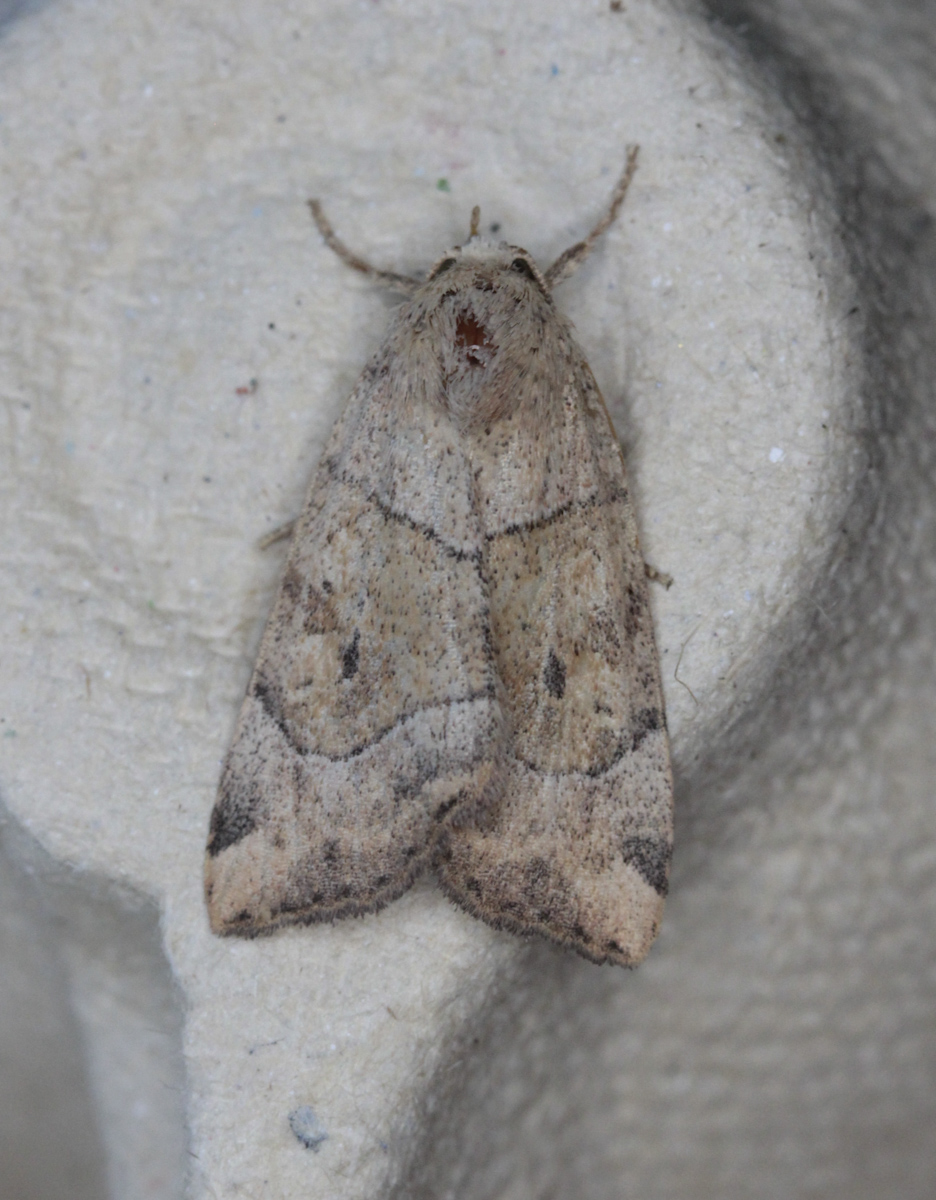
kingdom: Animalia
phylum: Arthropoda
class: Insecta
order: Lepidoptera
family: Noctuidae
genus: Cosmia
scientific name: Cosmia trapezina
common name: Dun-bar
